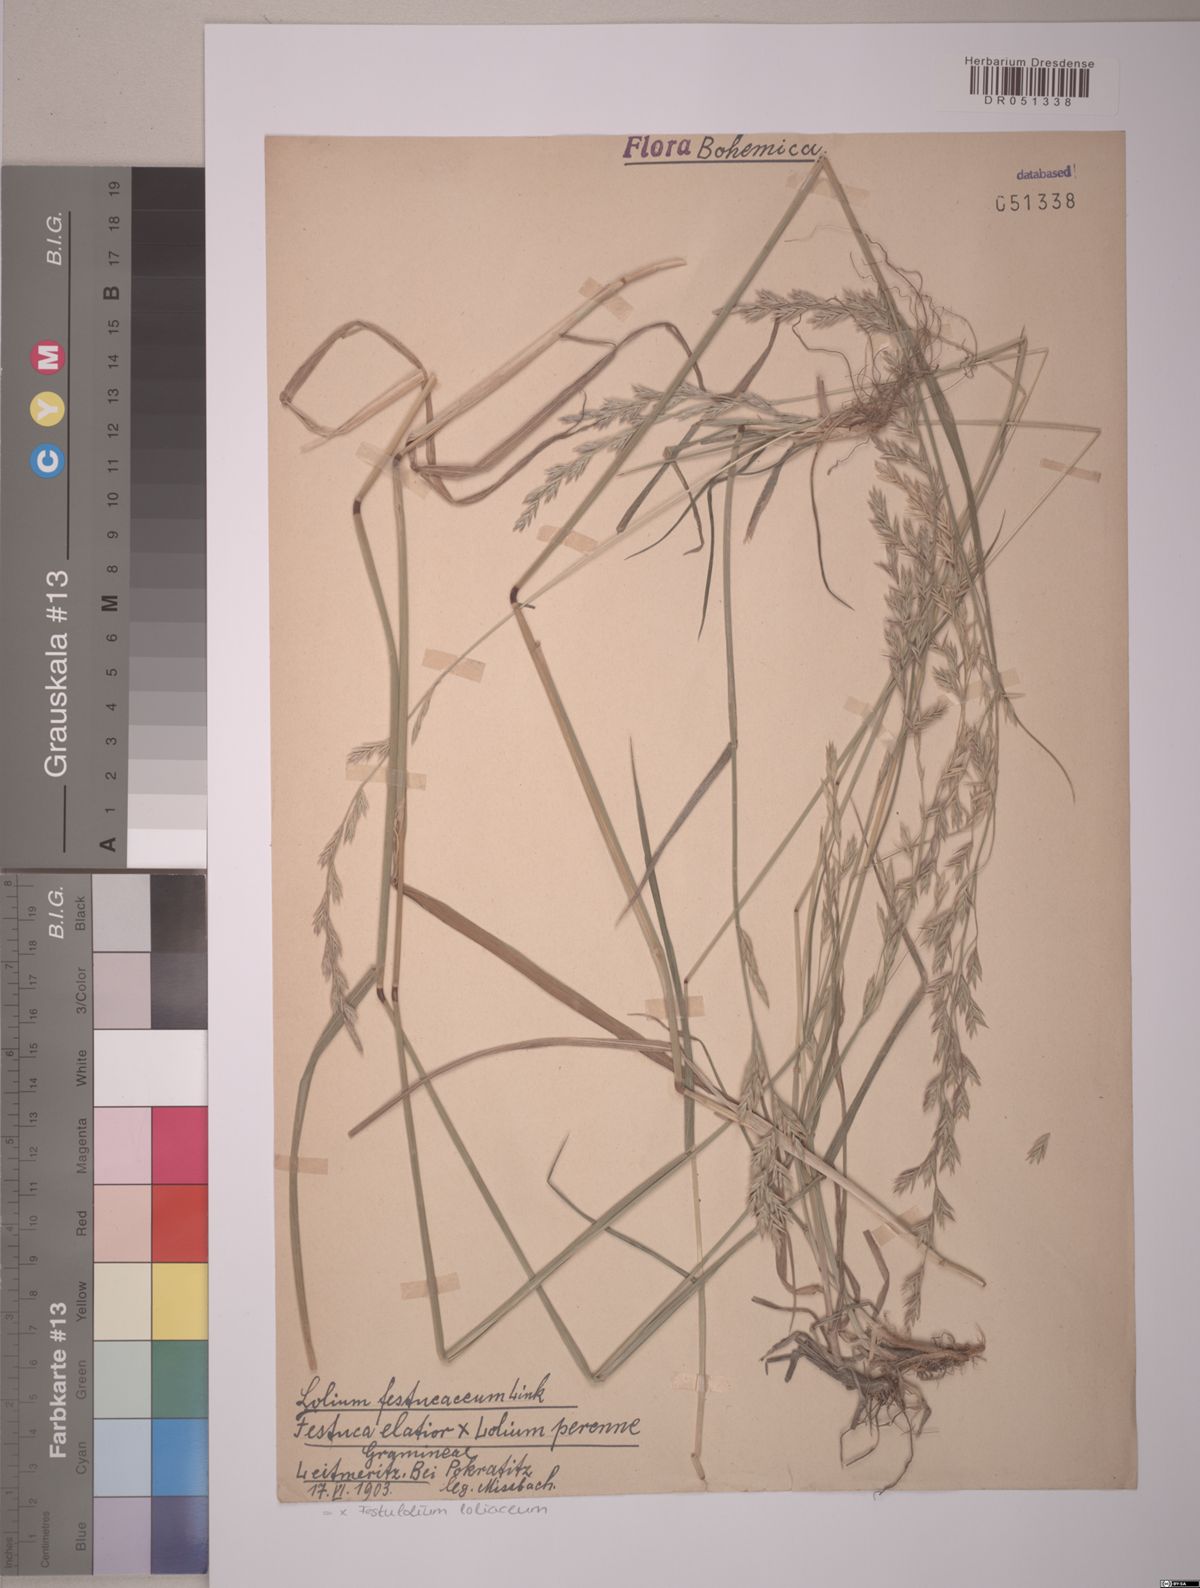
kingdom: Plantae
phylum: Tracheophyta
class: Liliopsida
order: Poales
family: Poaceae
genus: Lolium
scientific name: Lolium elongatum
